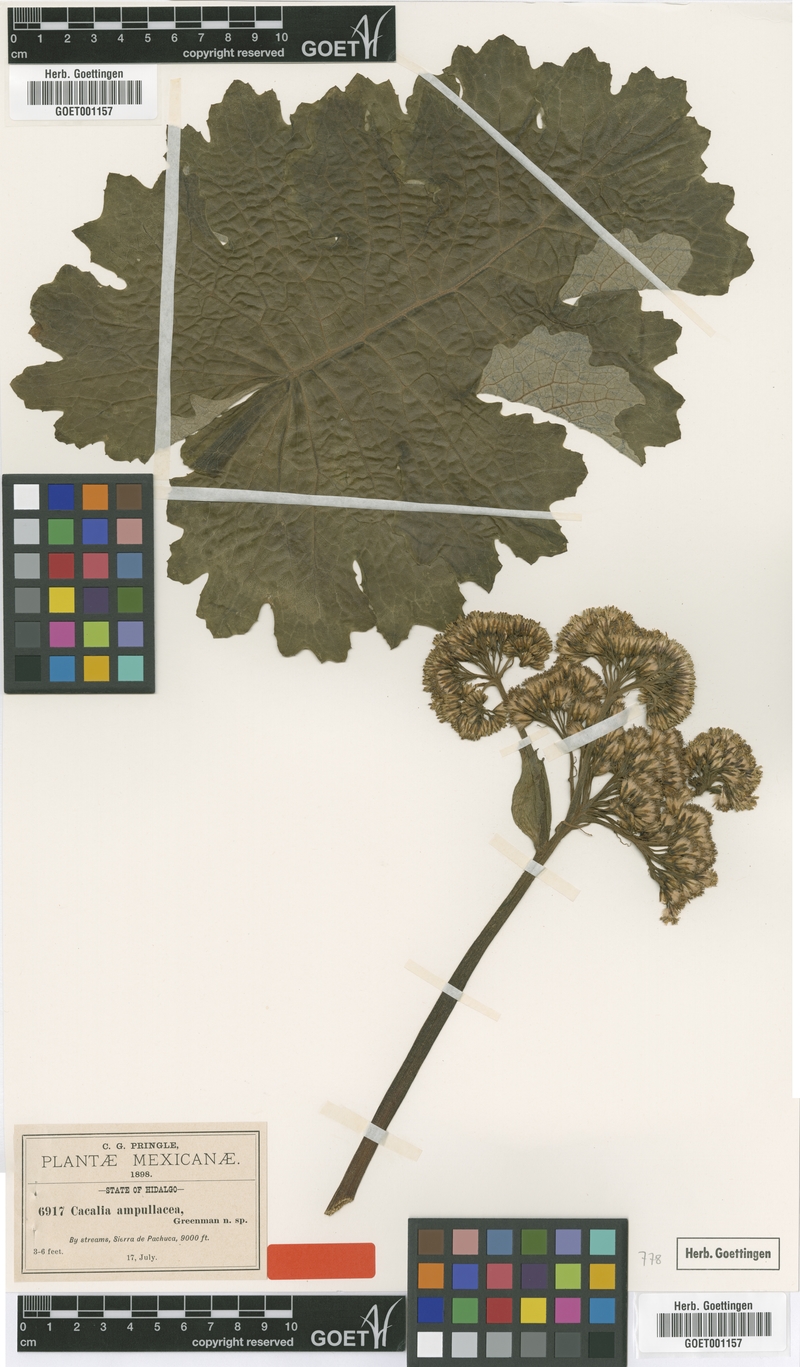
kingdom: Plantae
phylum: Tracheophyta
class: Magnoliopsida
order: Asterales
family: Asteraceae
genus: Adenostyles
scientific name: Adenostyles Cacalia ampullacea
